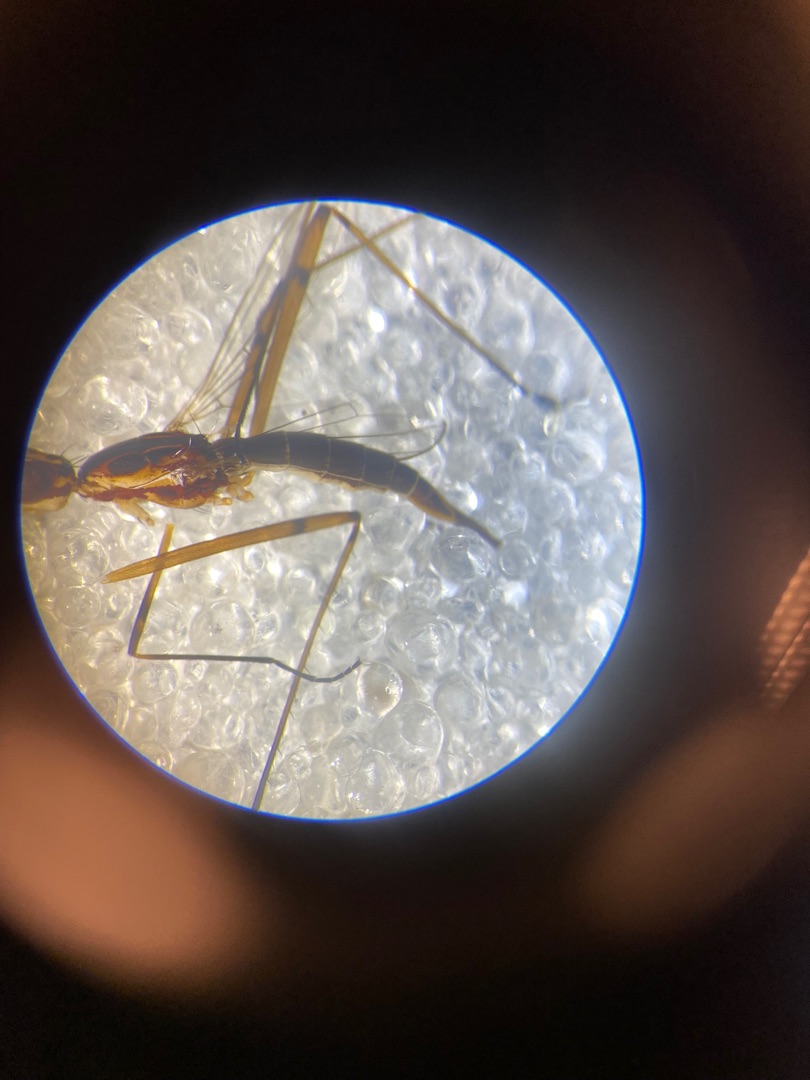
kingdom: Animalia
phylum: Arthropoda
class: Insecta
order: Diptera
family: Micropezidae
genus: Micropeza
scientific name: Micropeza lateralis
